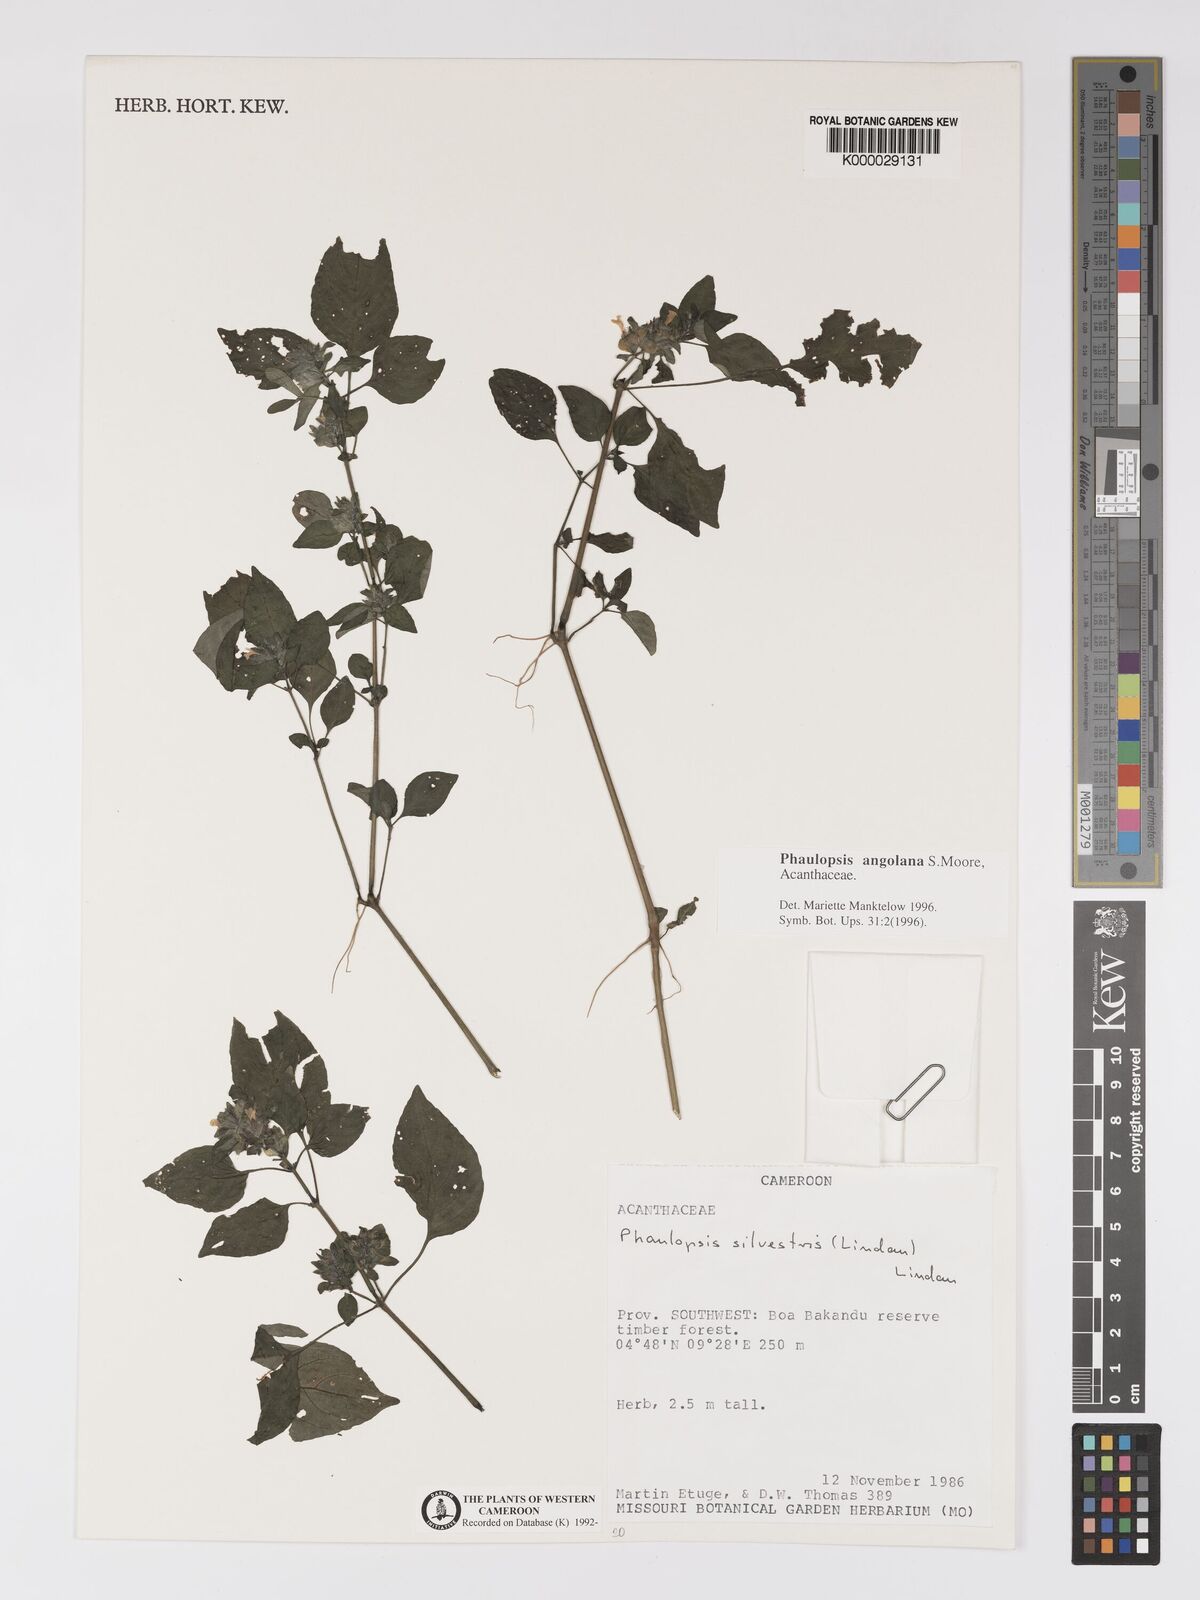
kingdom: Plantae
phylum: Tracheophyta
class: Magnoliopsida
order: Lamiales
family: Acanthaceae
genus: Phaulopsis
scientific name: Phaulopsis angolana
